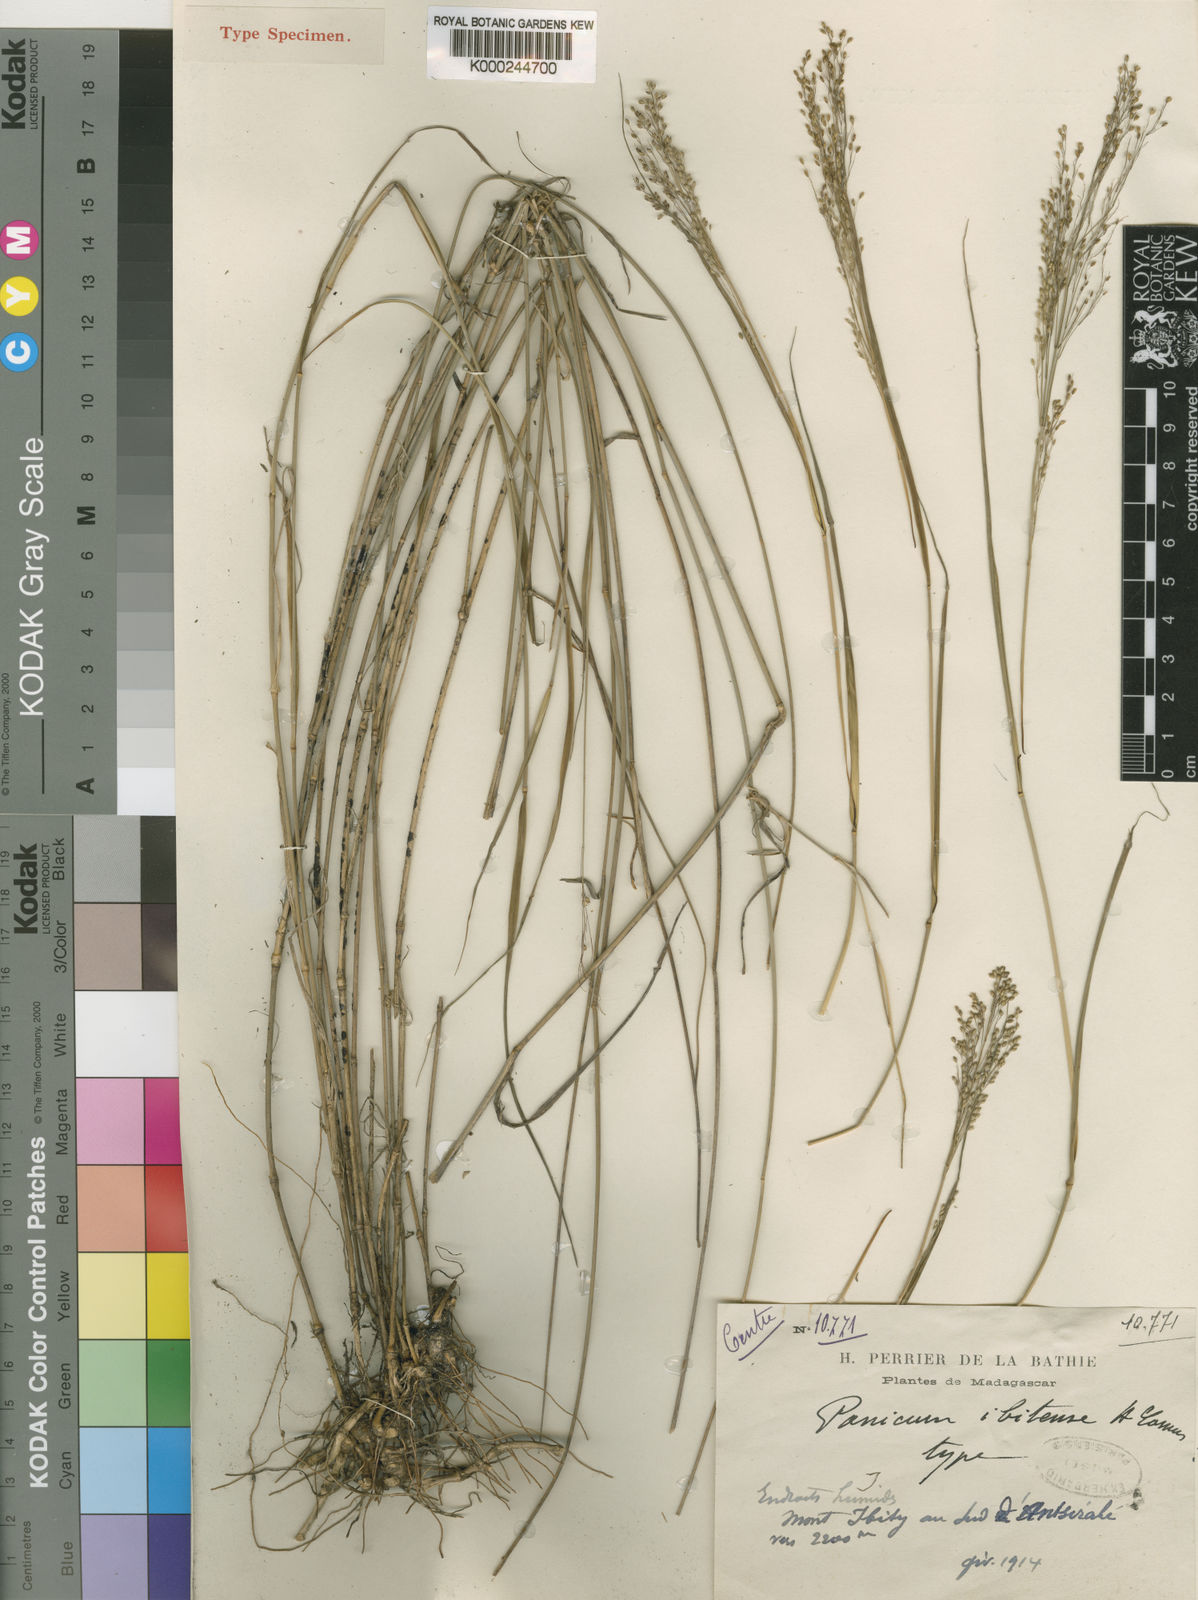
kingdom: Plantae
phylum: Tracheophyta
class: Liliopsida
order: Poales
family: Poaceae
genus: Panicum
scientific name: Panicum ibitense
